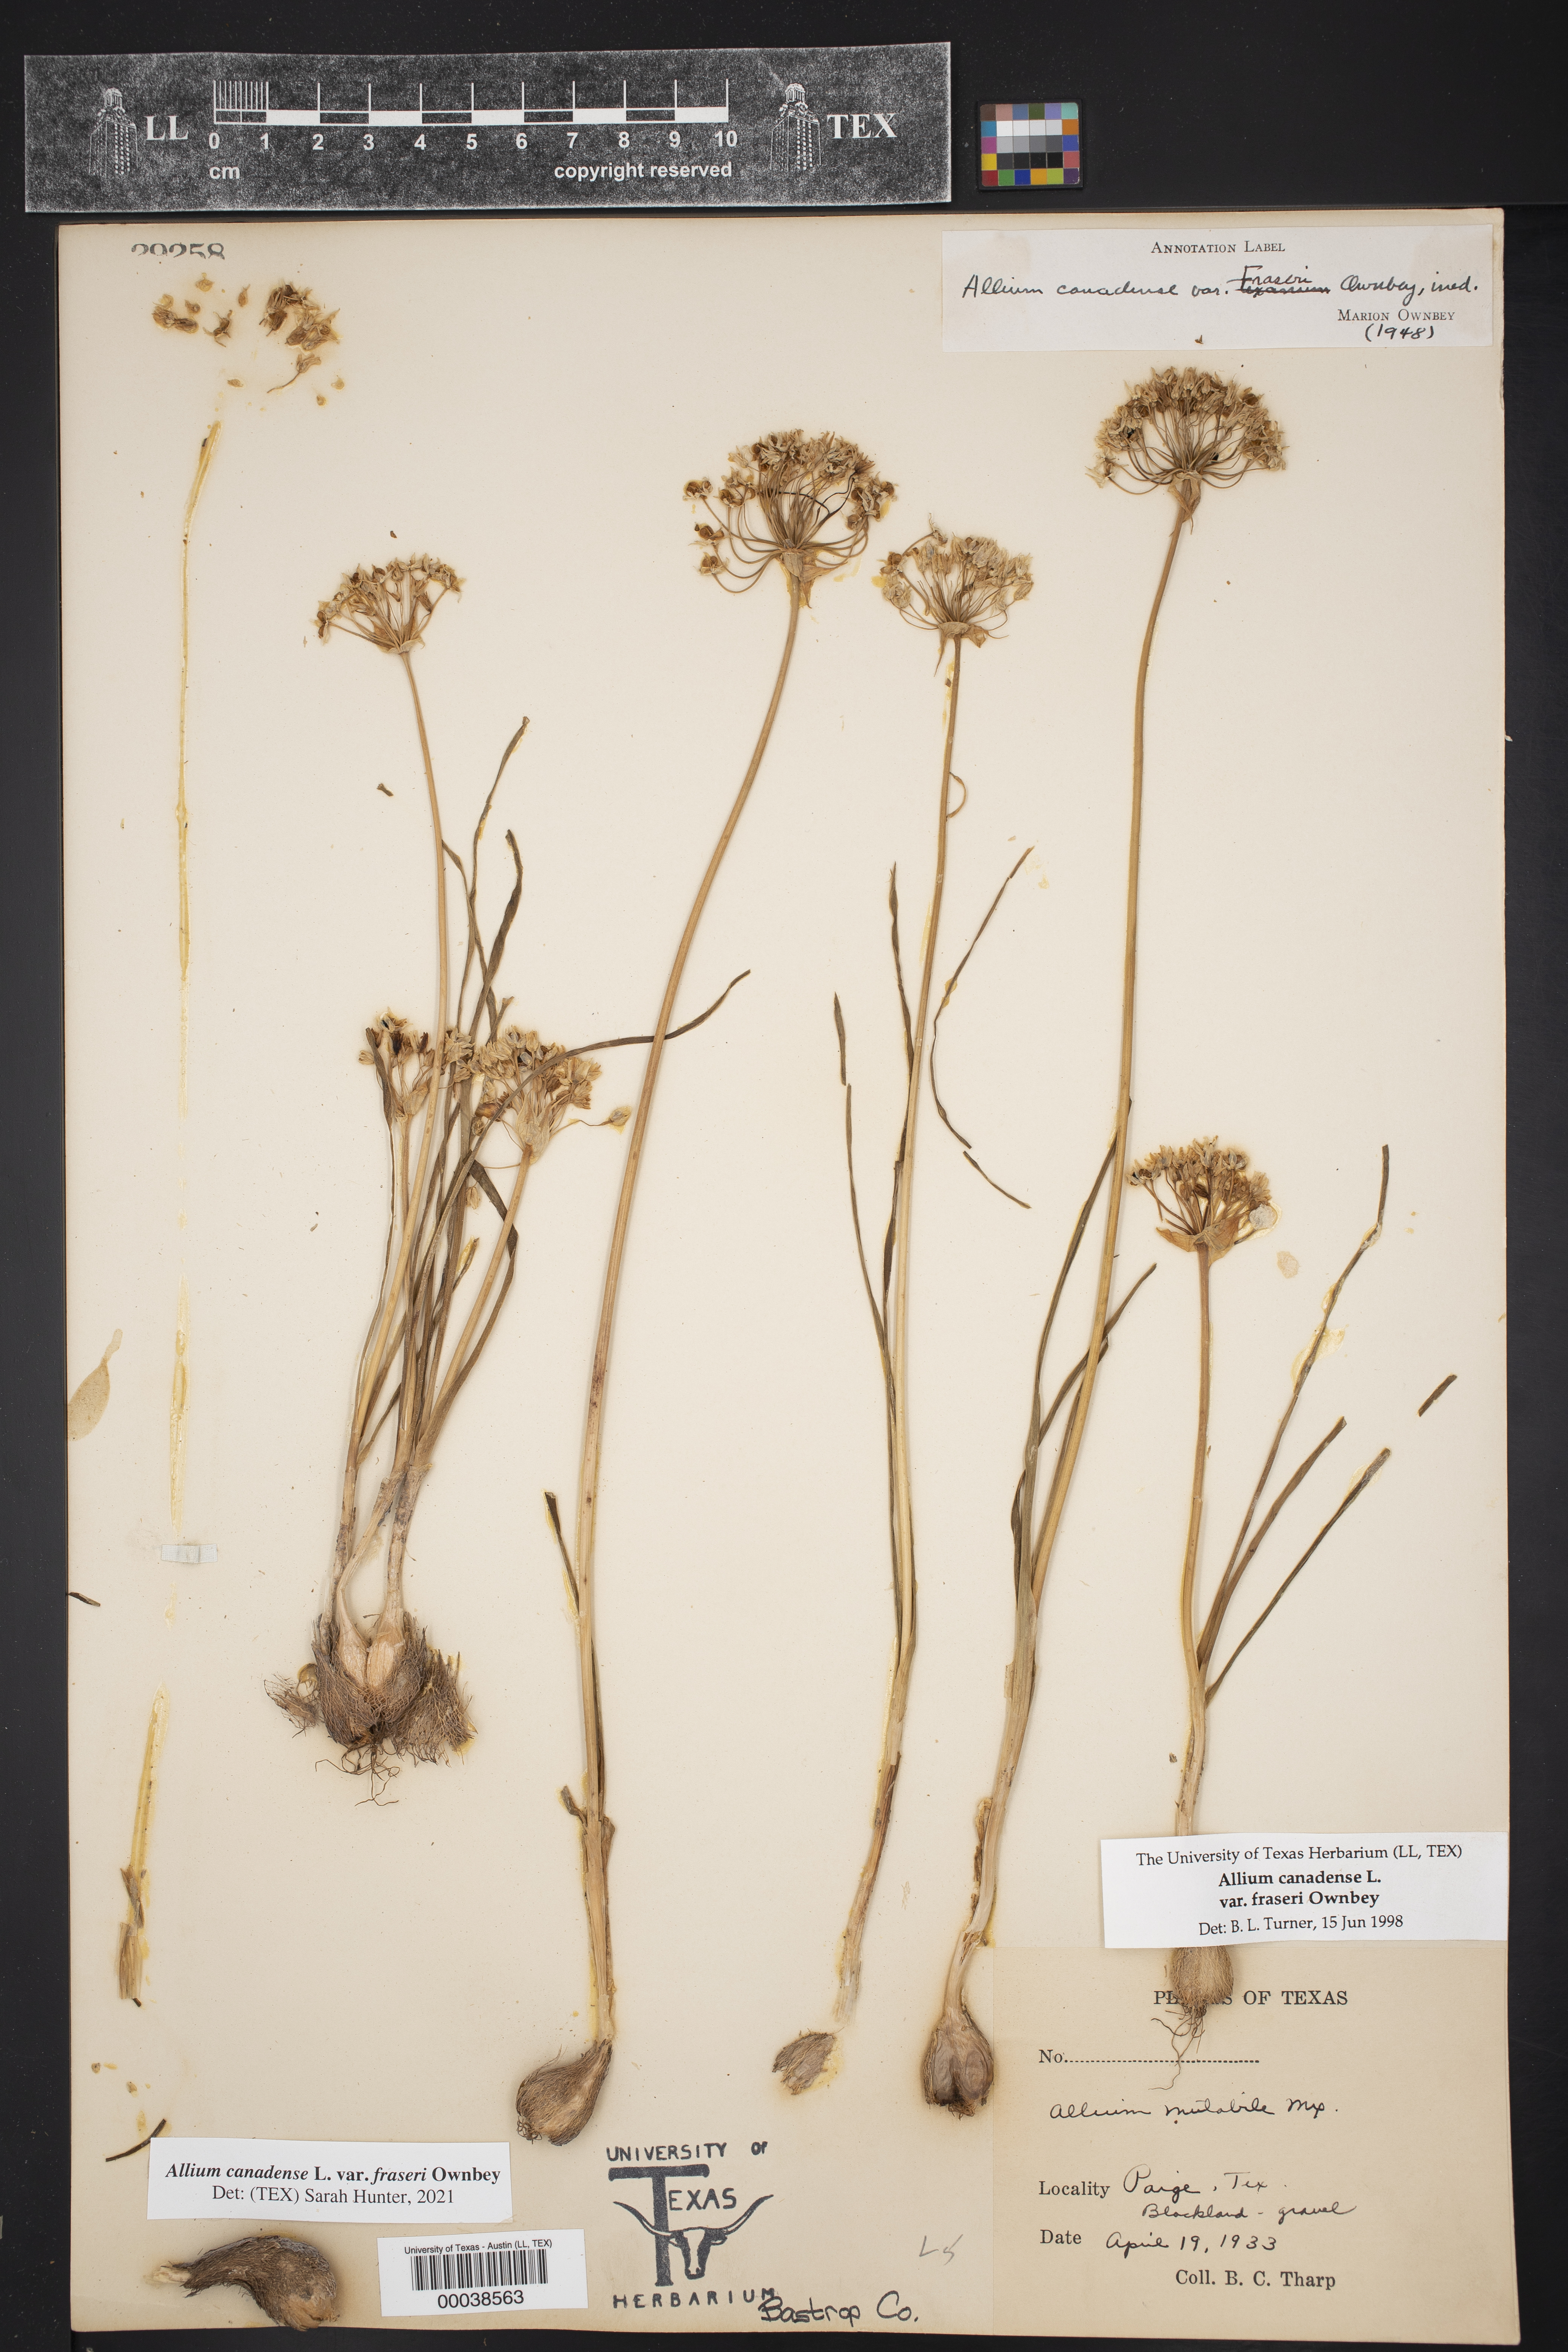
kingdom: Plantae
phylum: Tracheophyta
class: Liliopsida
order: Asparagales
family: Amaryllidaceae
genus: Allium
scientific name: Allium canadense
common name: Meadow garlic
